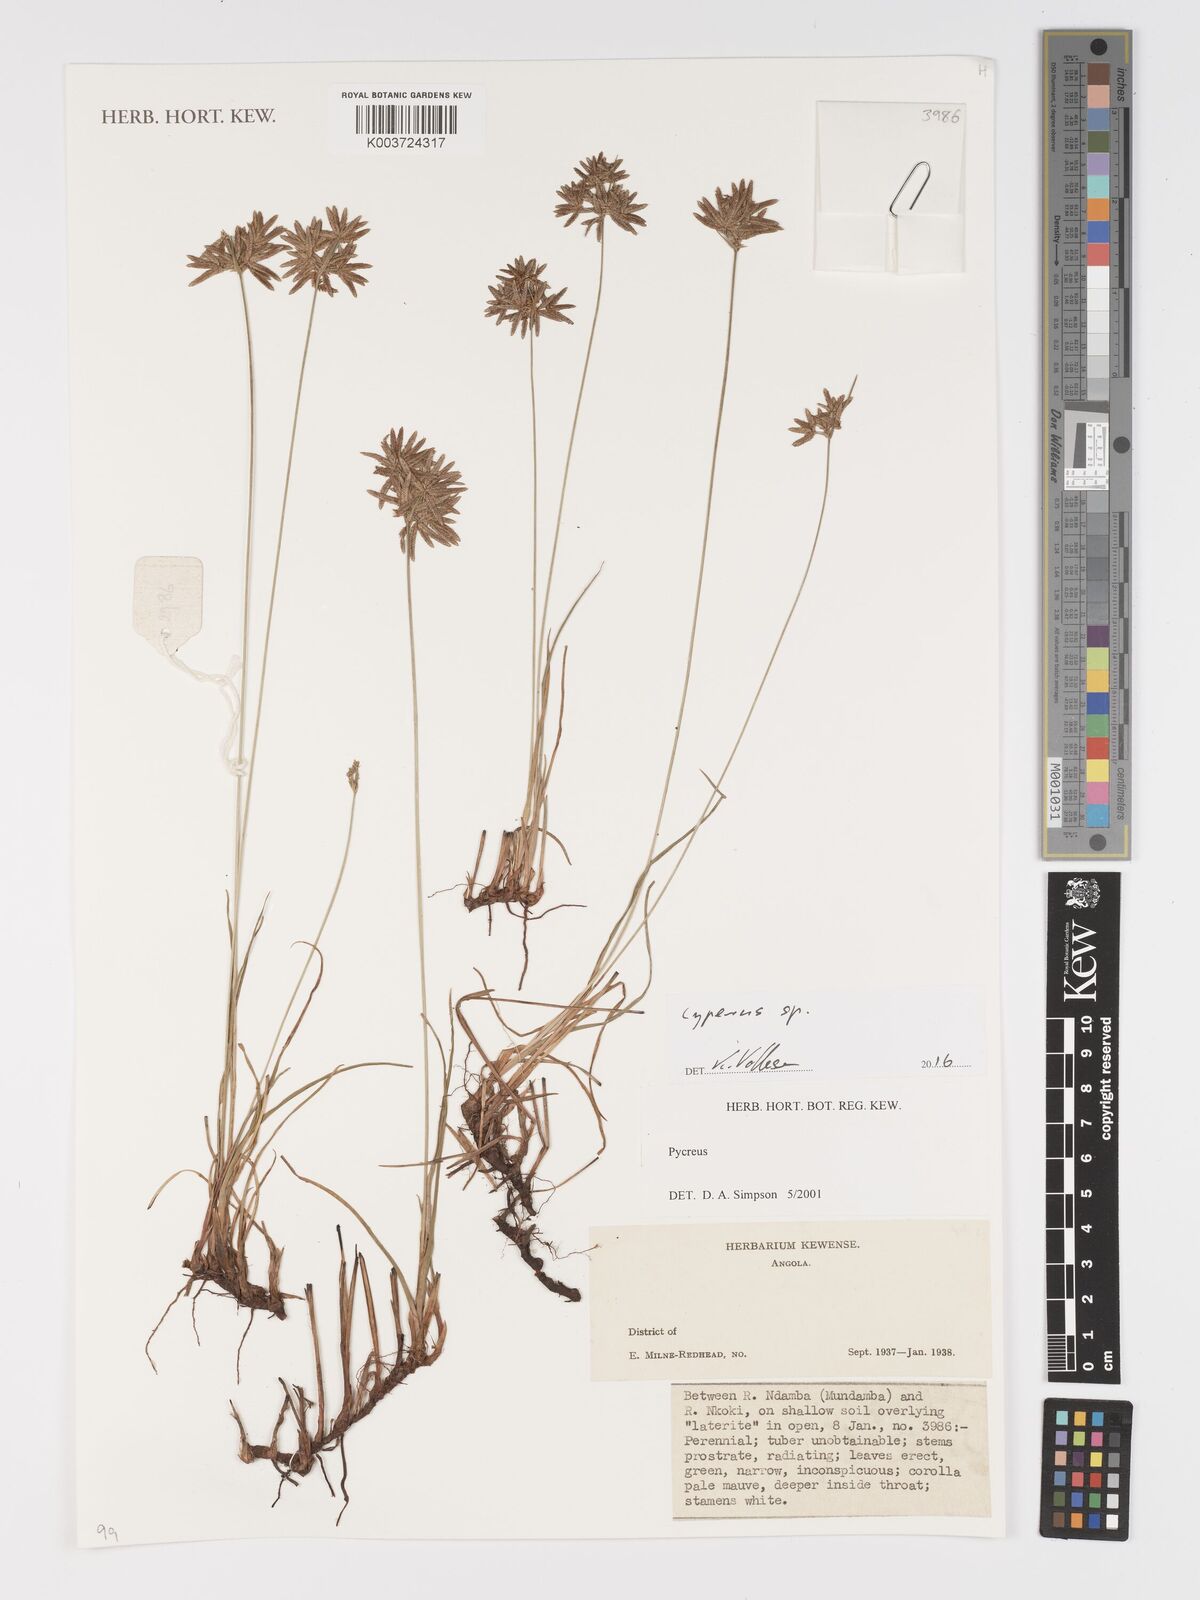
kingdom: Plantae
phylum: Tracheophyta
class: Liliopsida
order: Poales
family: Cyperaceae
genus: Cyperus
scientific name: Cyperus
